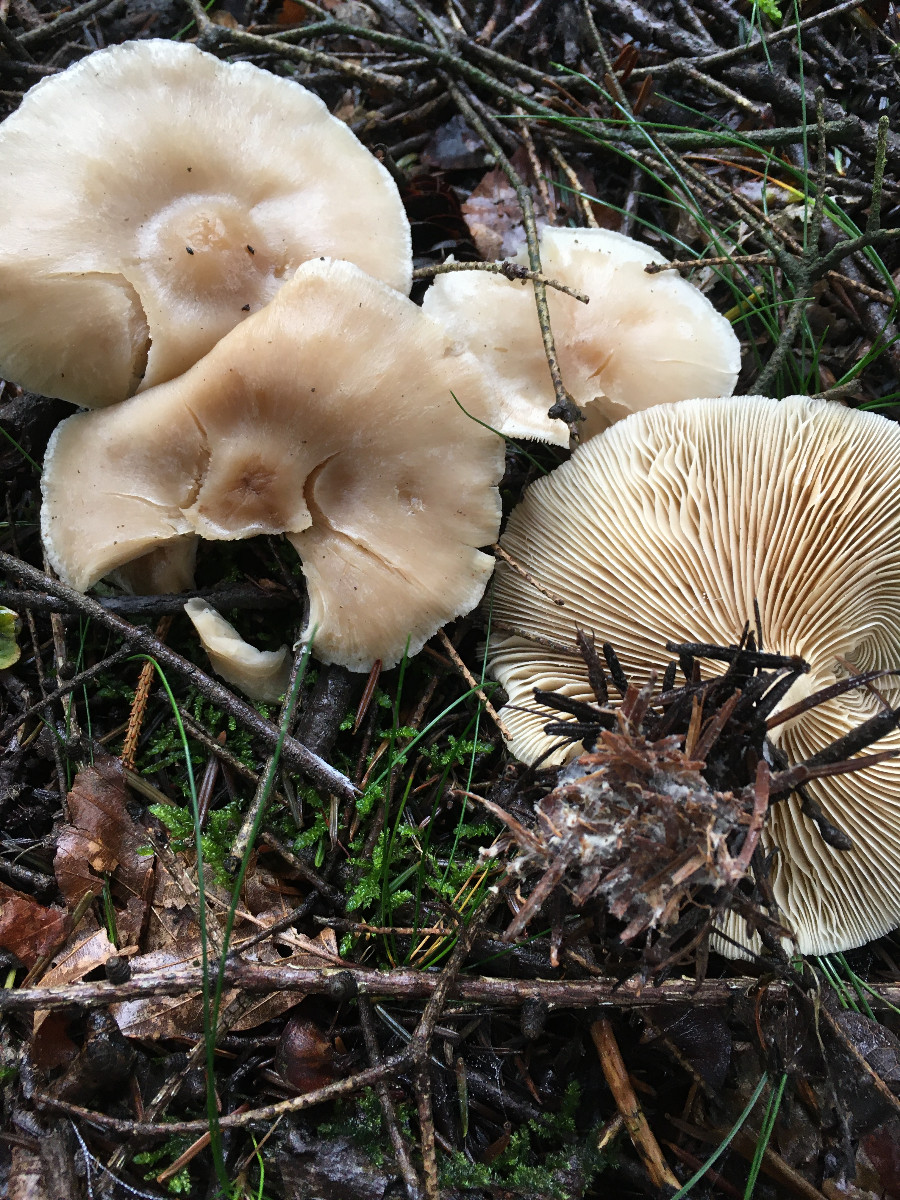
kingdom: Fungi
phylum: Basidiomycota
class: Agaricomycetes
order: Agaricales
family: Tricholomataceae
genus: Clitocybe
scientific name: Clitocybe
